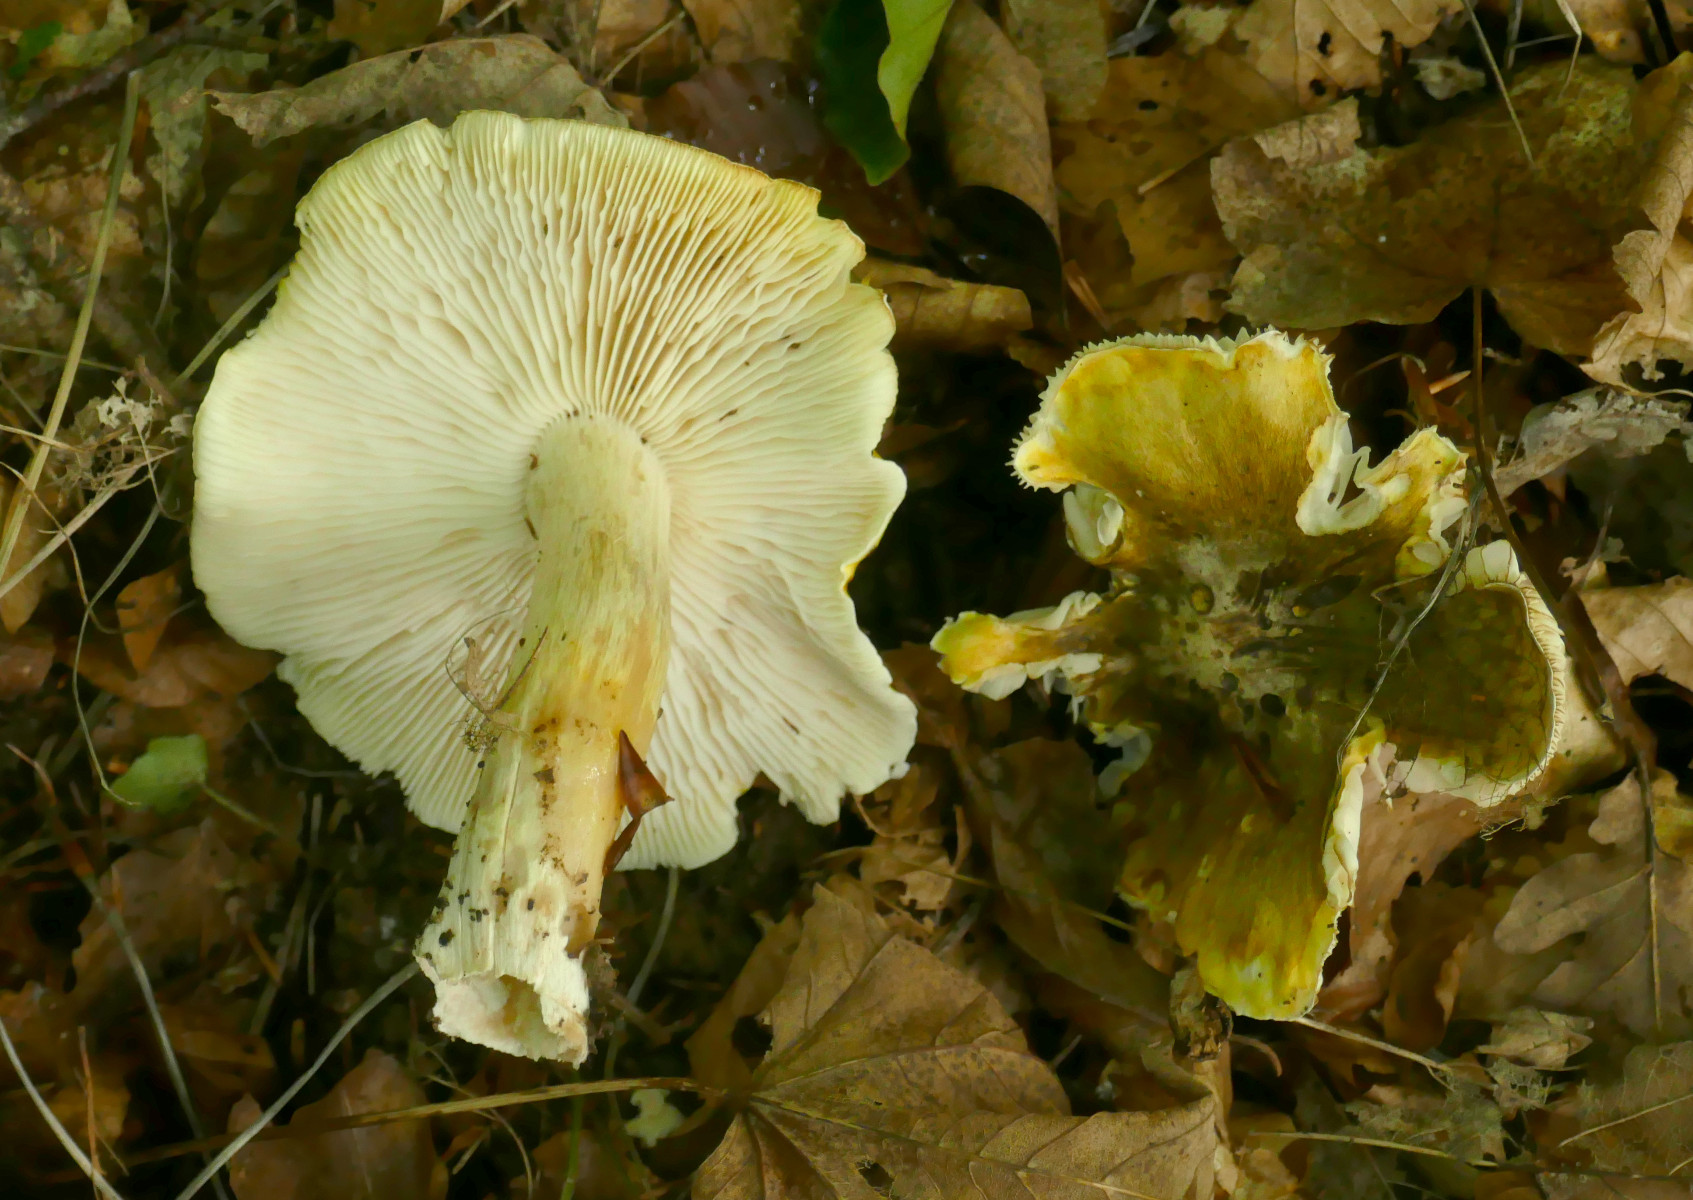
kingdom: Fungi
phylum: Basidiomycota
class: Agaricomycetes
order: Agaricales
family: Tricholomataceae
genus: Tricholoma
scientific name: Tricholoma sejunctum
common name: grøngul ridderhat
